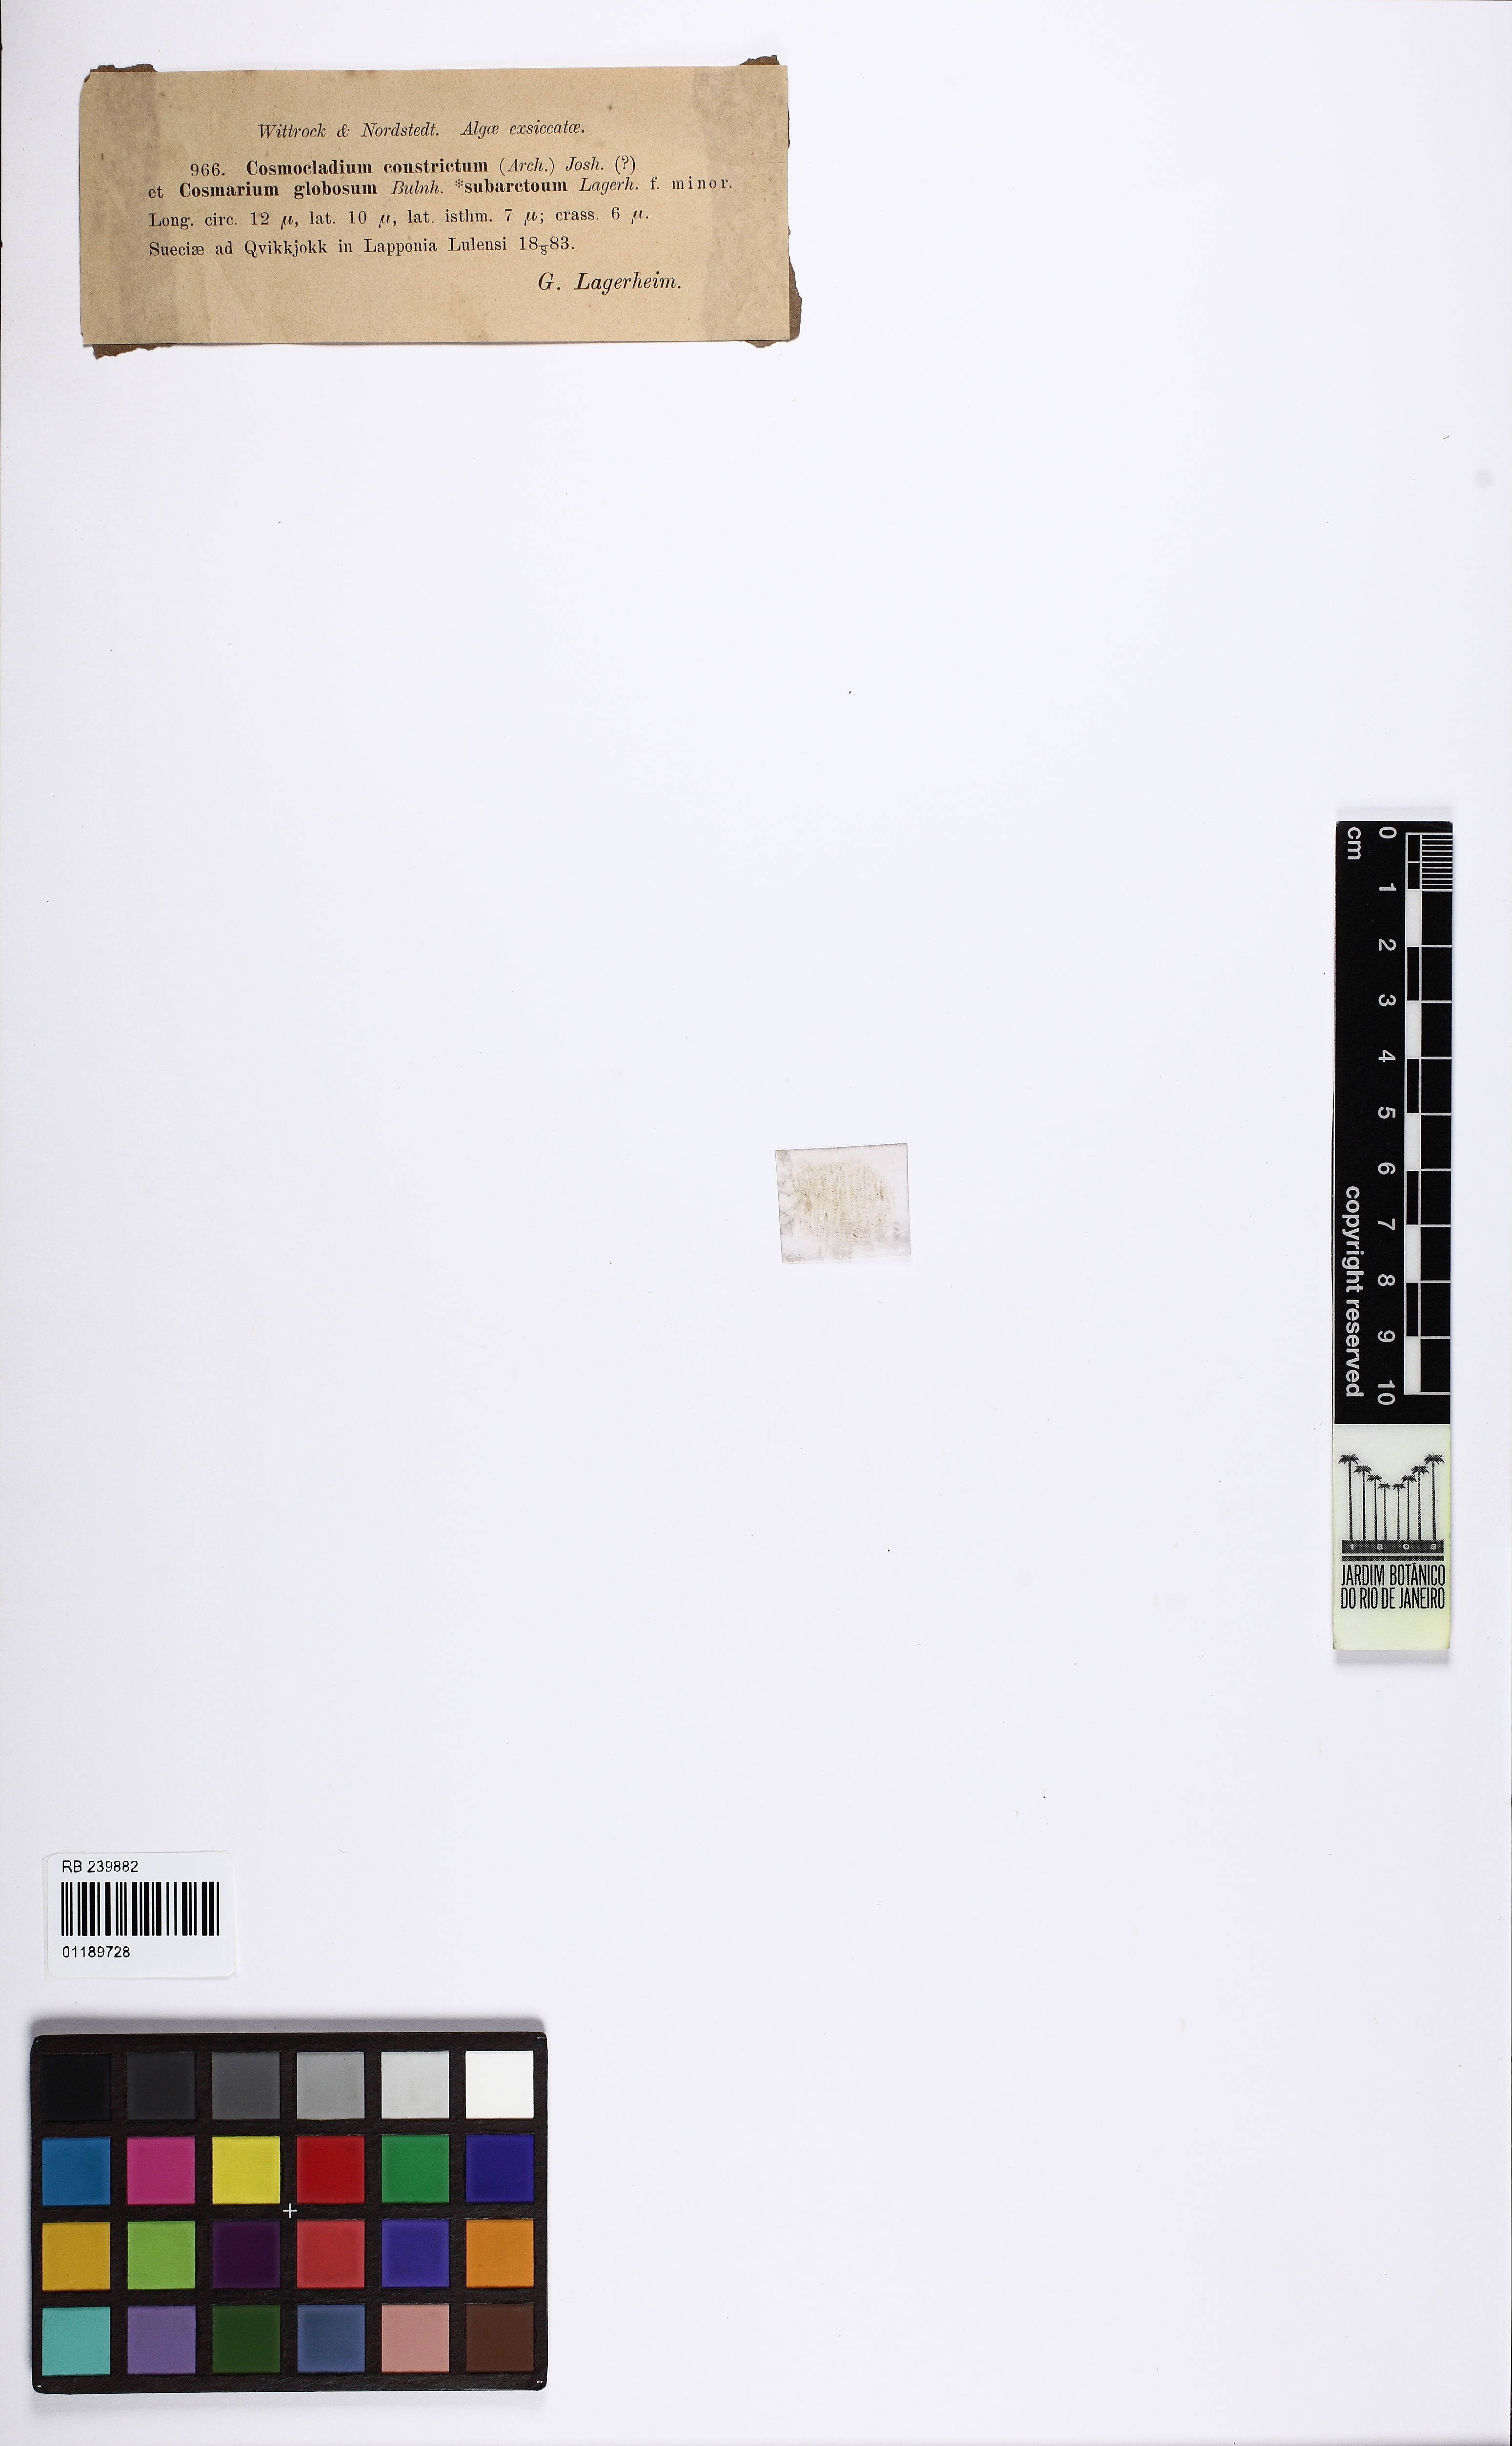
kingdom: Plantae
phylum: Charophyta
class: Conjugatophyceae
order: Desmidiales
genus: Cosmocladium
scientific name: Cosmocladium constrictum
